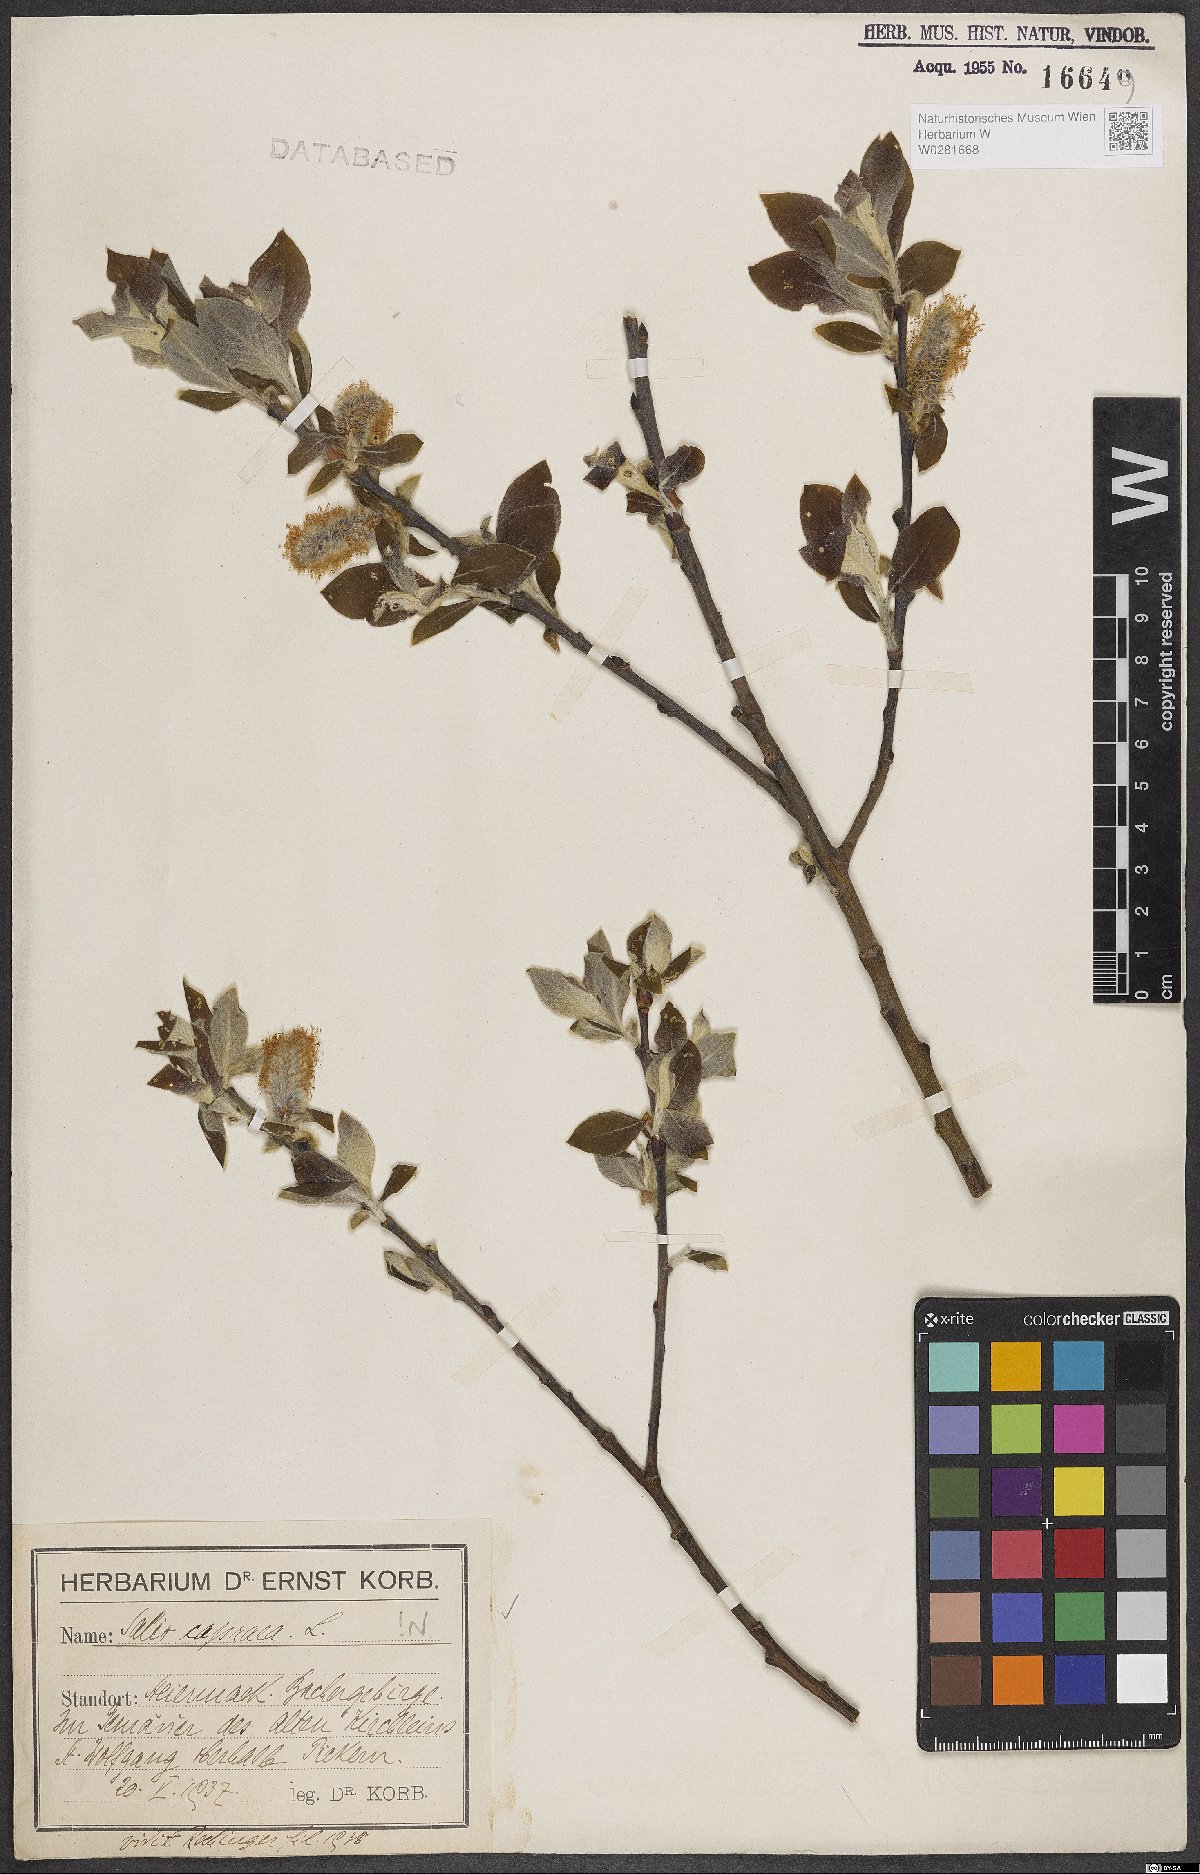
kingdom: Plantae
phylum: Tracheophyta
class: Magnoliopsida
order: Malpighiales
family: Salicaceae
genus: Salix
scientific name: Salix caprea
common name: Goat willow
